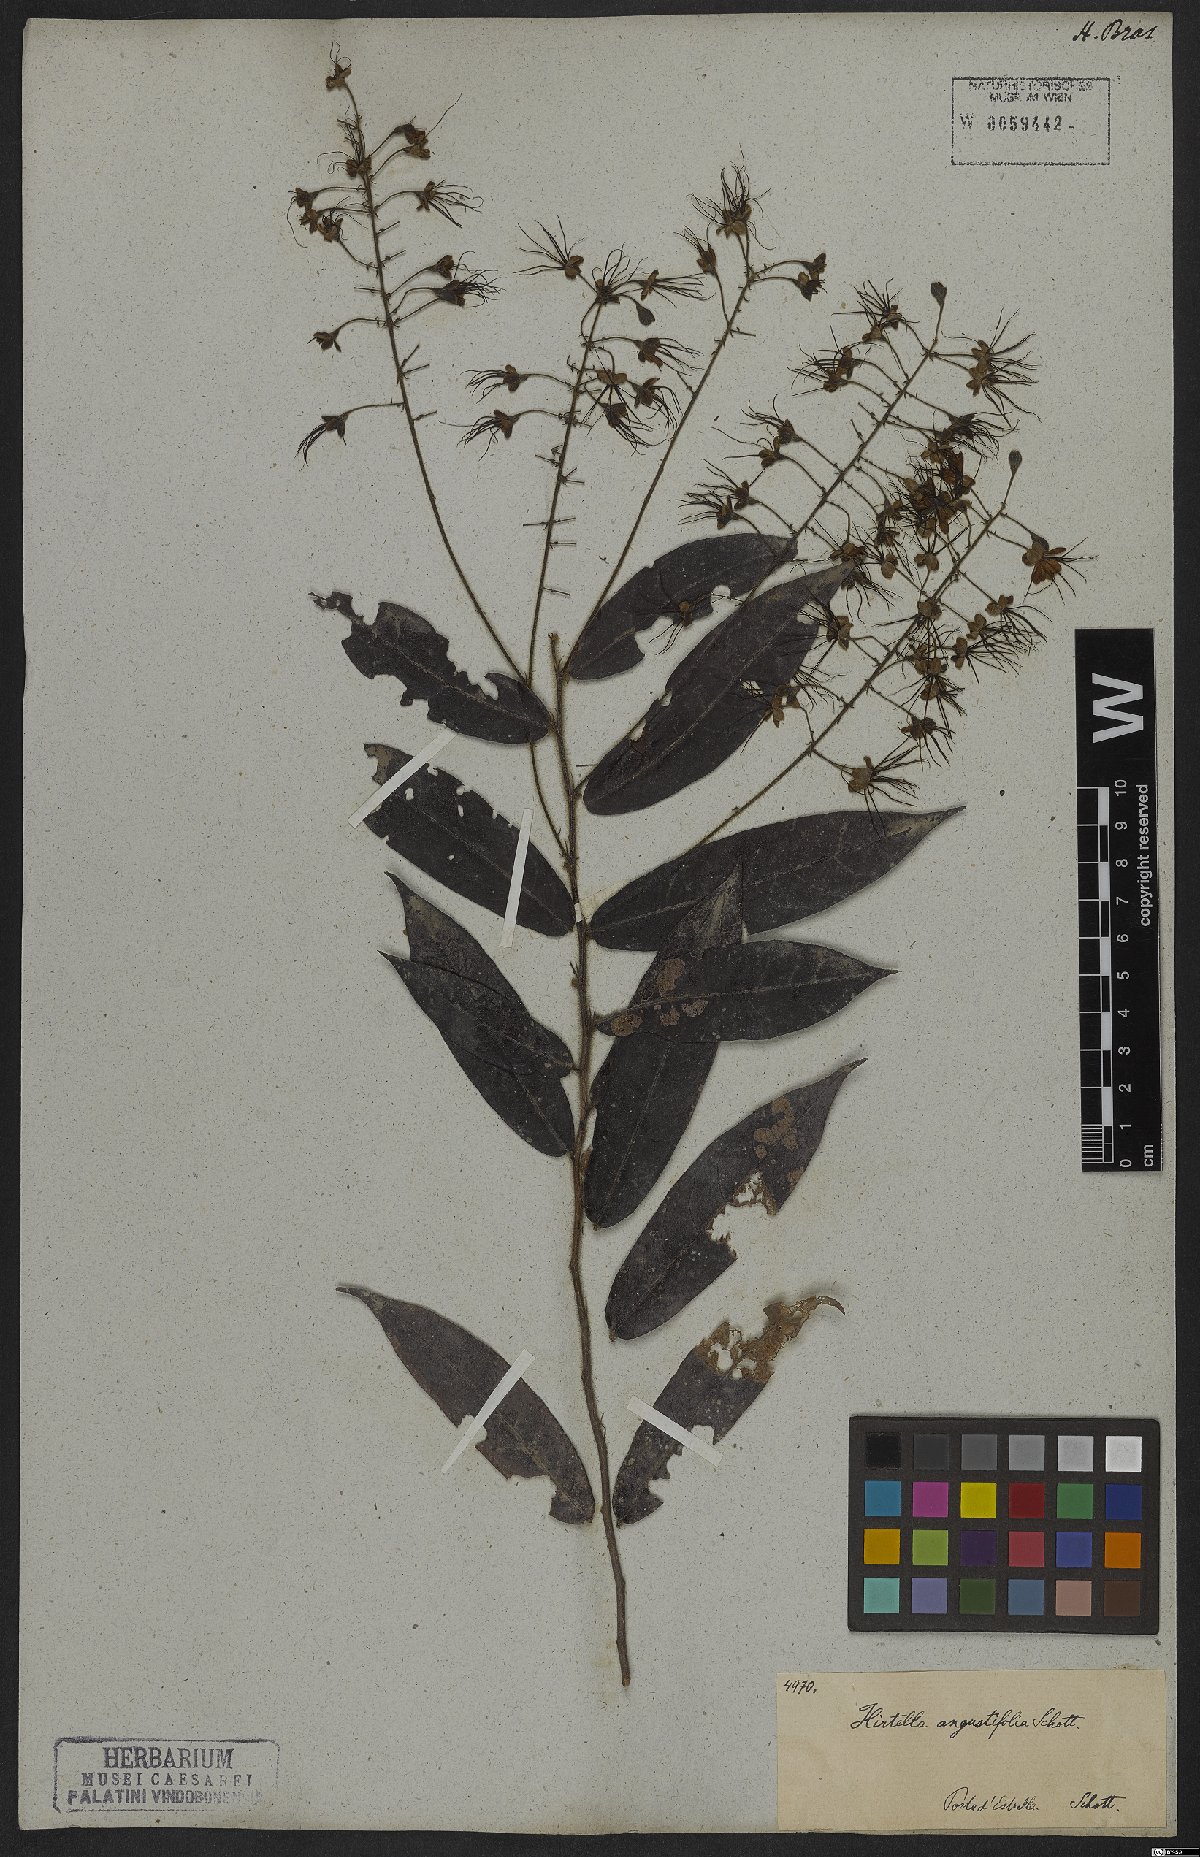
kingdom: Plantae
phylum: Tracheophyta
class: Magnoliopsida
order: Malpighiales
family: Chrysobalanaceae
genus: Hirtella
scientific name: Hirtella angustifolia
